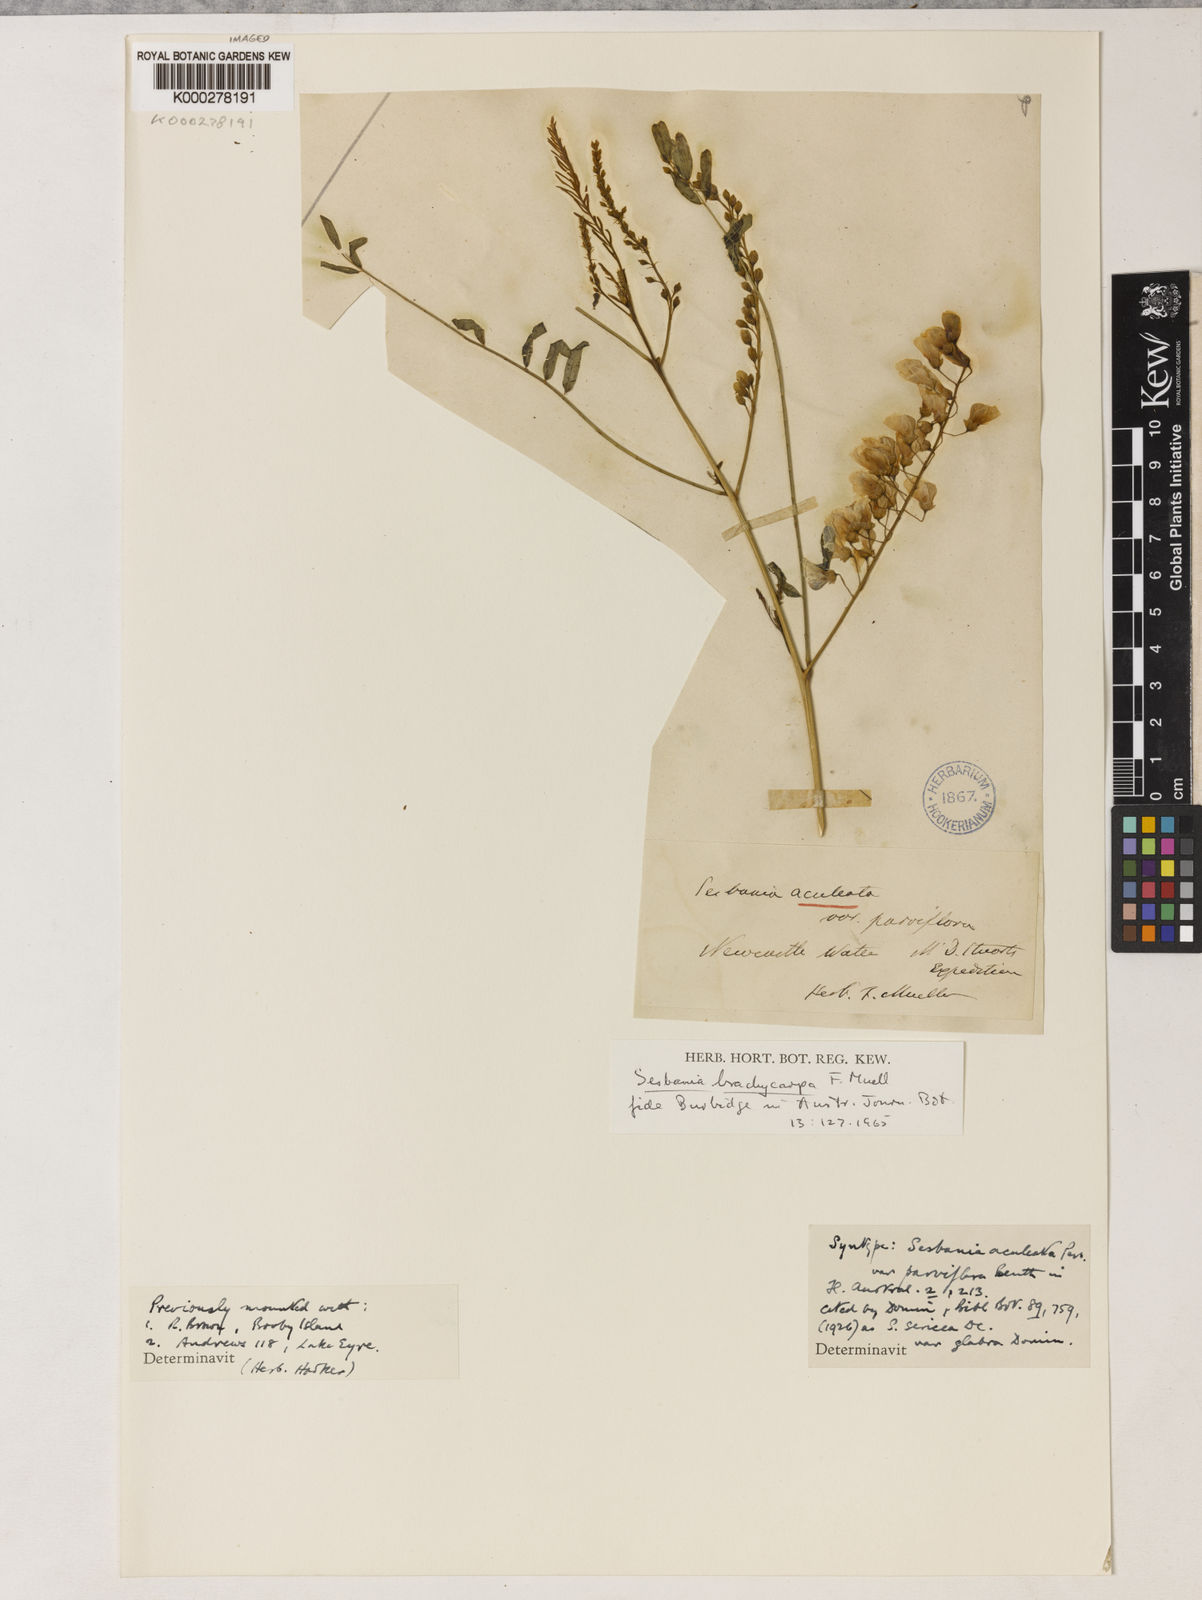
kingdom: Plantae
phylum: Tracheophyta
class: Magnoliopsida
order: Fabales
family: Fabaceae
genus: Sesbania
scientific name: Sesbania chippendalei
